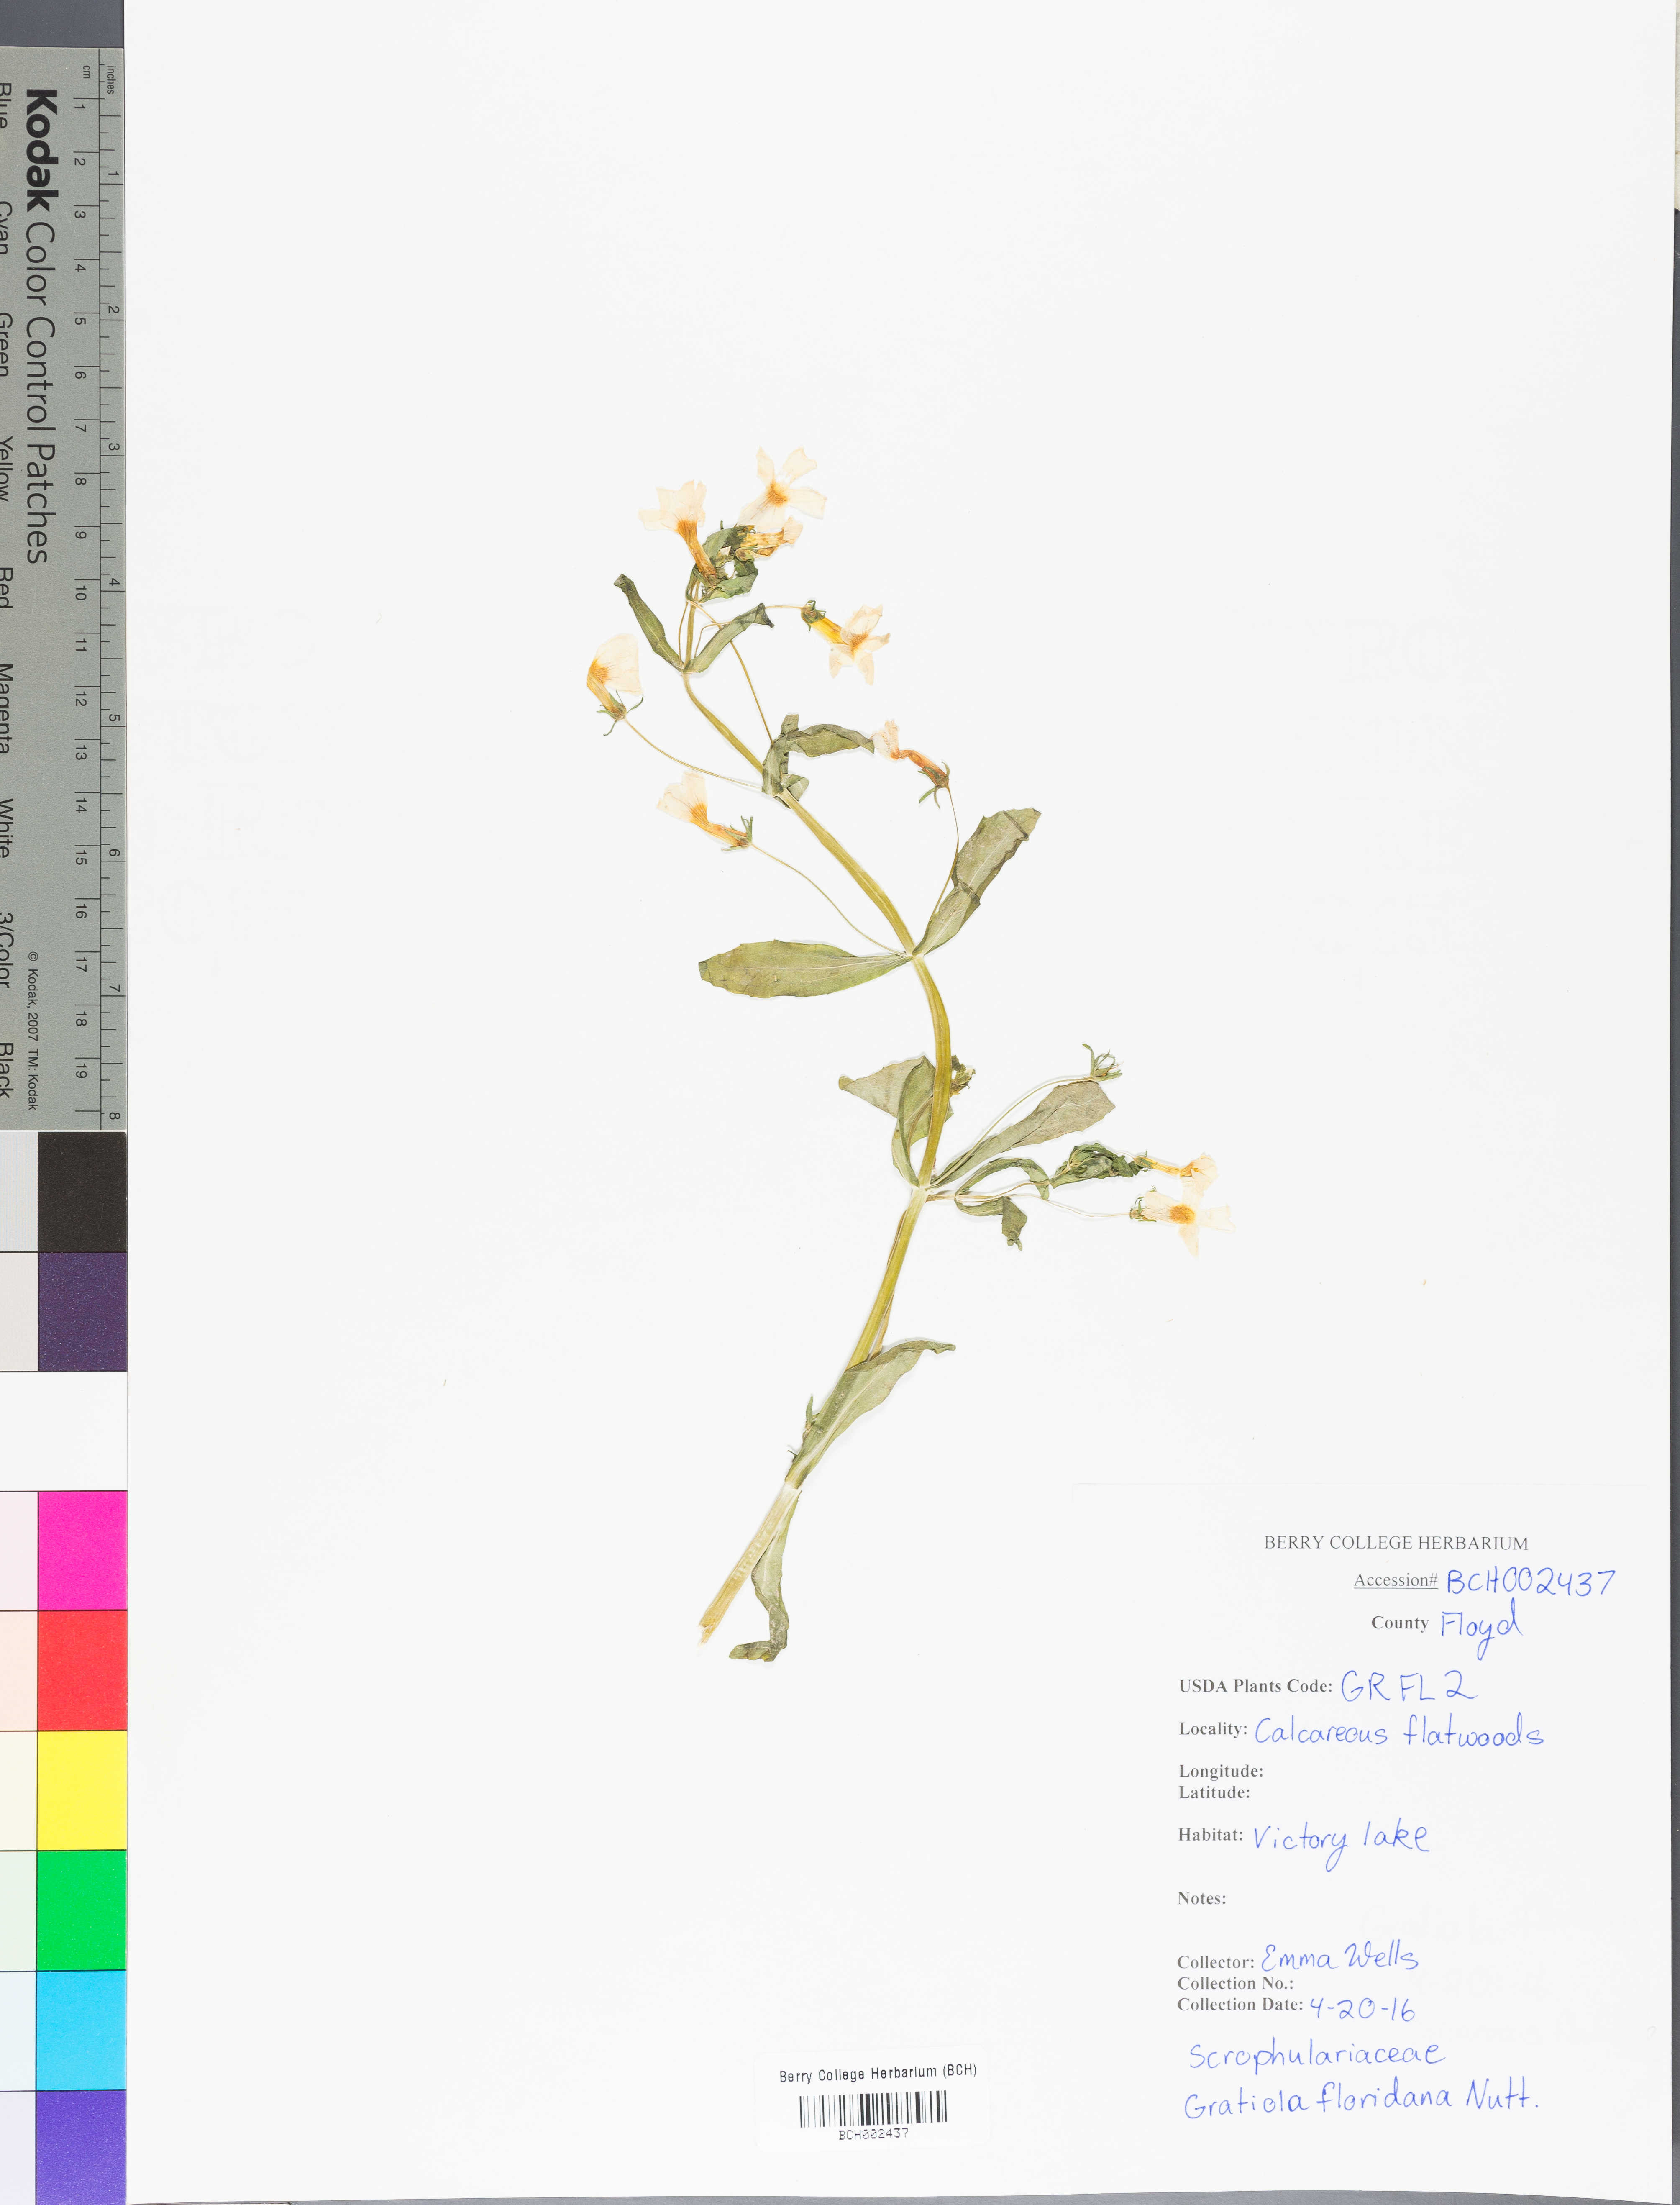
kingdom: Plantae
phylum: Tracheophyta
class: Magnoliopsida
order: Lamiales
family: Plantaginaceae
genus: Gratiola
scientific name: Gratiola floridana
